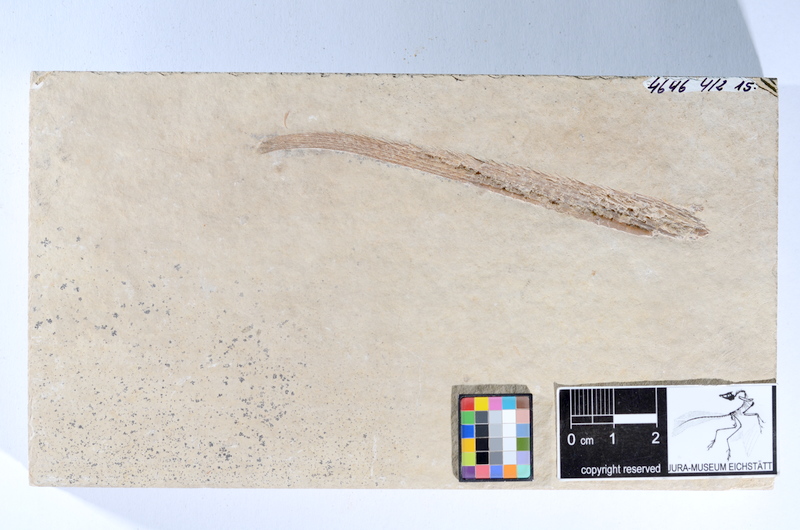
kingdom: Animalia
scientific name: Animalia
